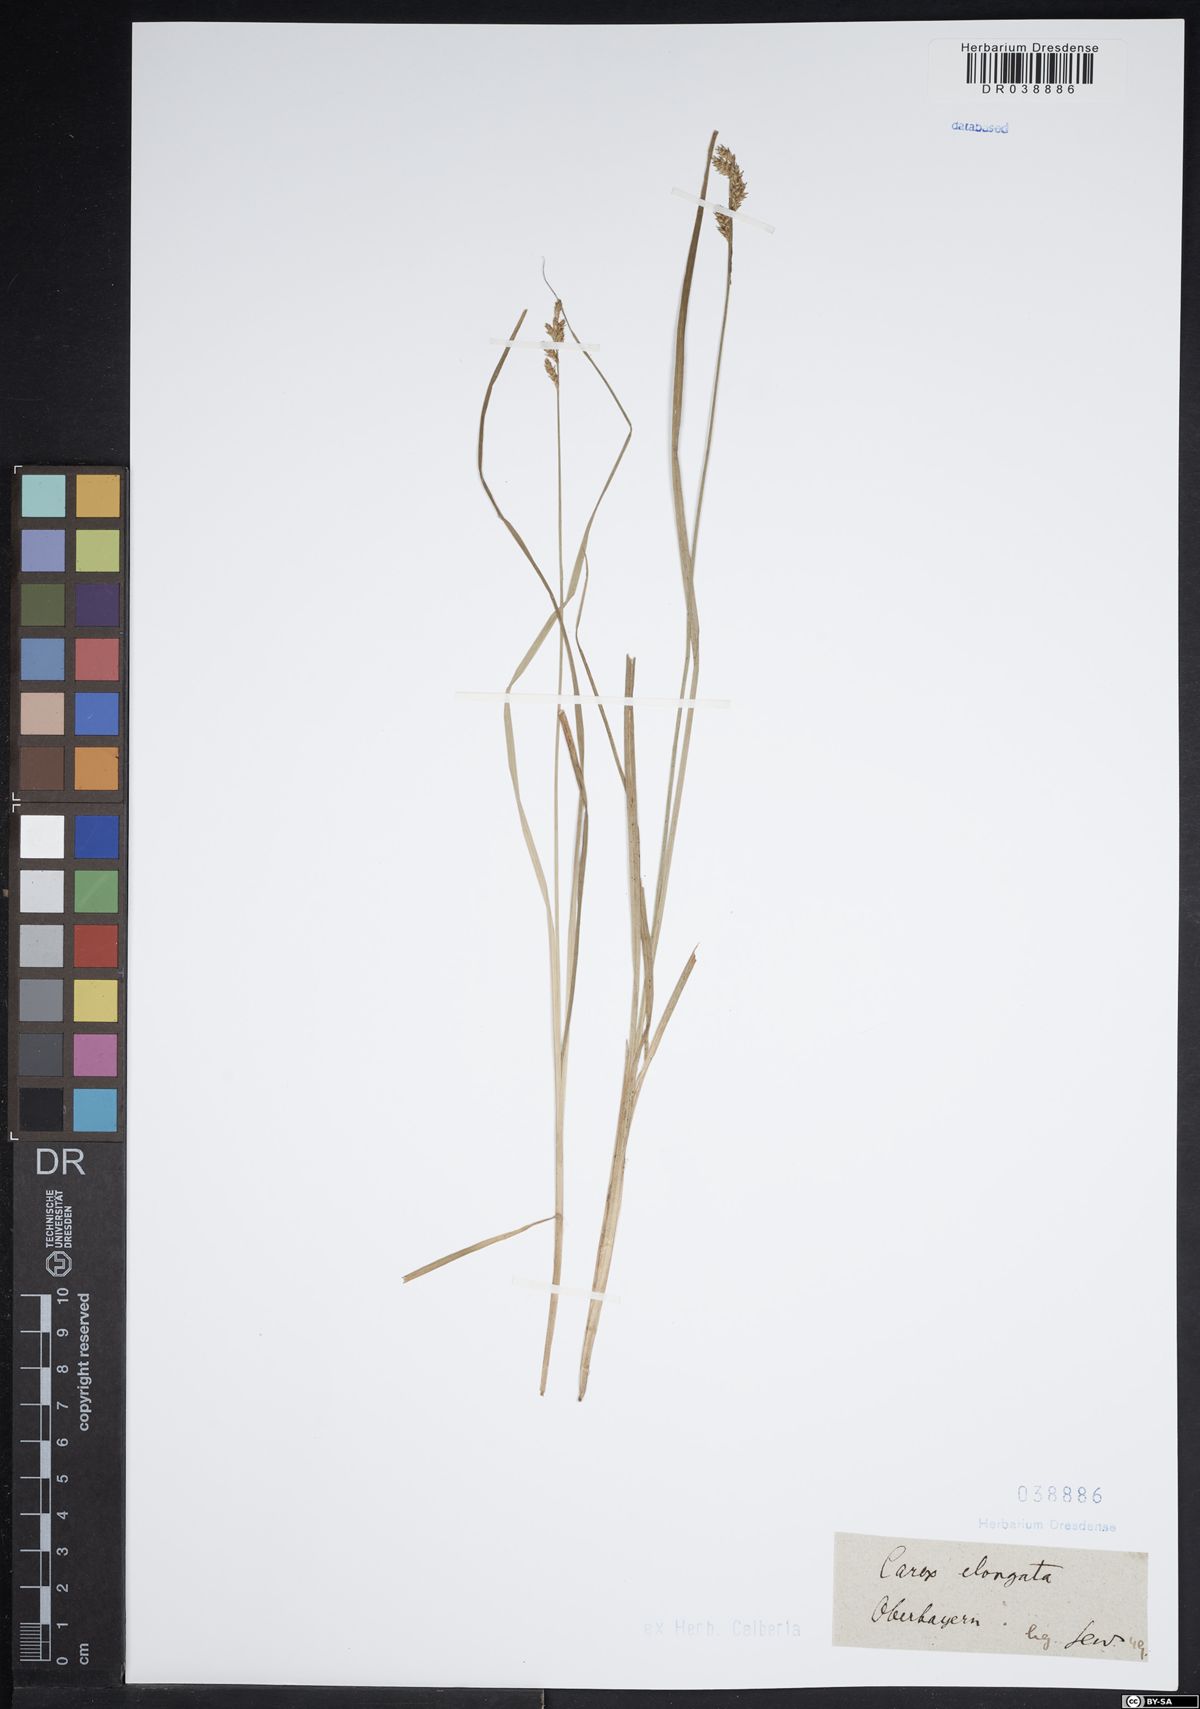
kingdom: Plantae
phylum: Tracheophyta
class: Liliopsida
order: Poales
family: Cyperaceae
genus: Carex
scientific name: Carex elongata
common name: Elongated sedge
